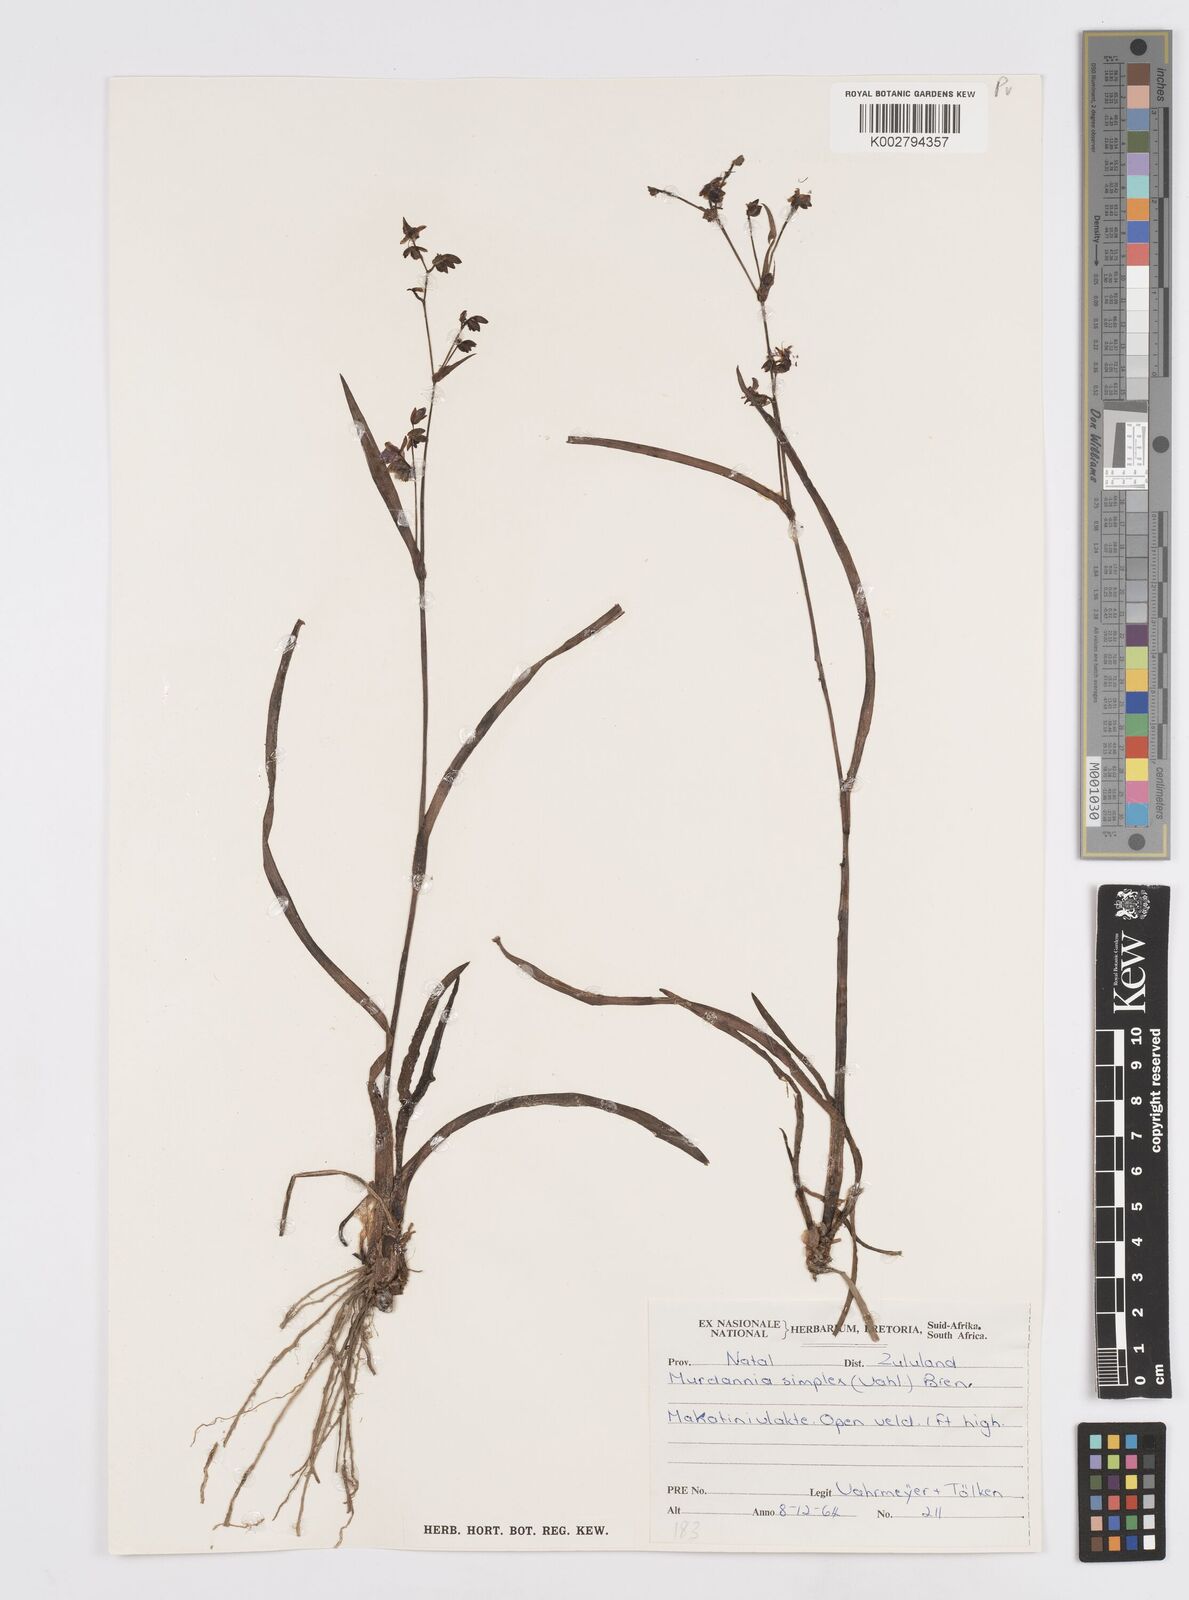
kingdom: Plantae
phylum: Tracheophyta
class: Liliopsida
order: Commelinales
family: Commelinaceae
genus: Murdannia
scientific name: Murdannia simplex
